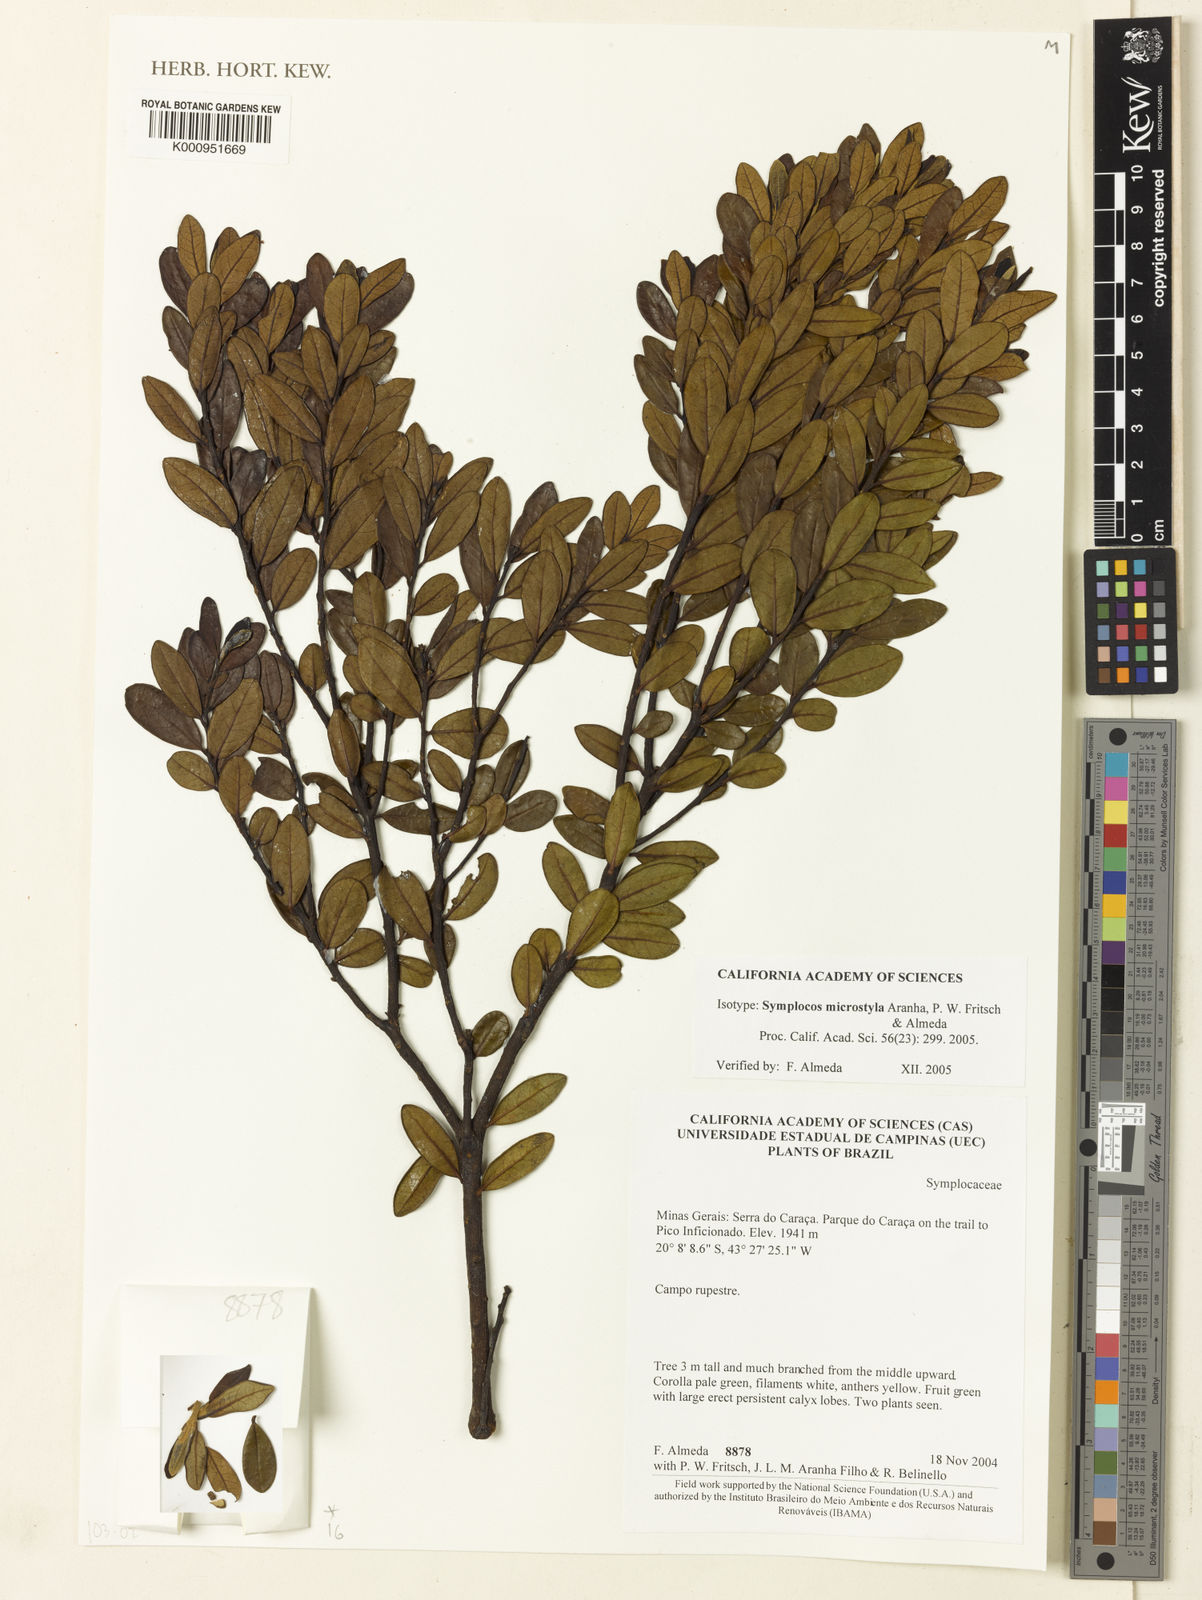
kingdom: Plantae
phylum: Tracheophyta
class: Magnoliopsida
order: Ericales
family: Symplocaceae
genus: Symplocos
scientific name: Symplocos microstyla
